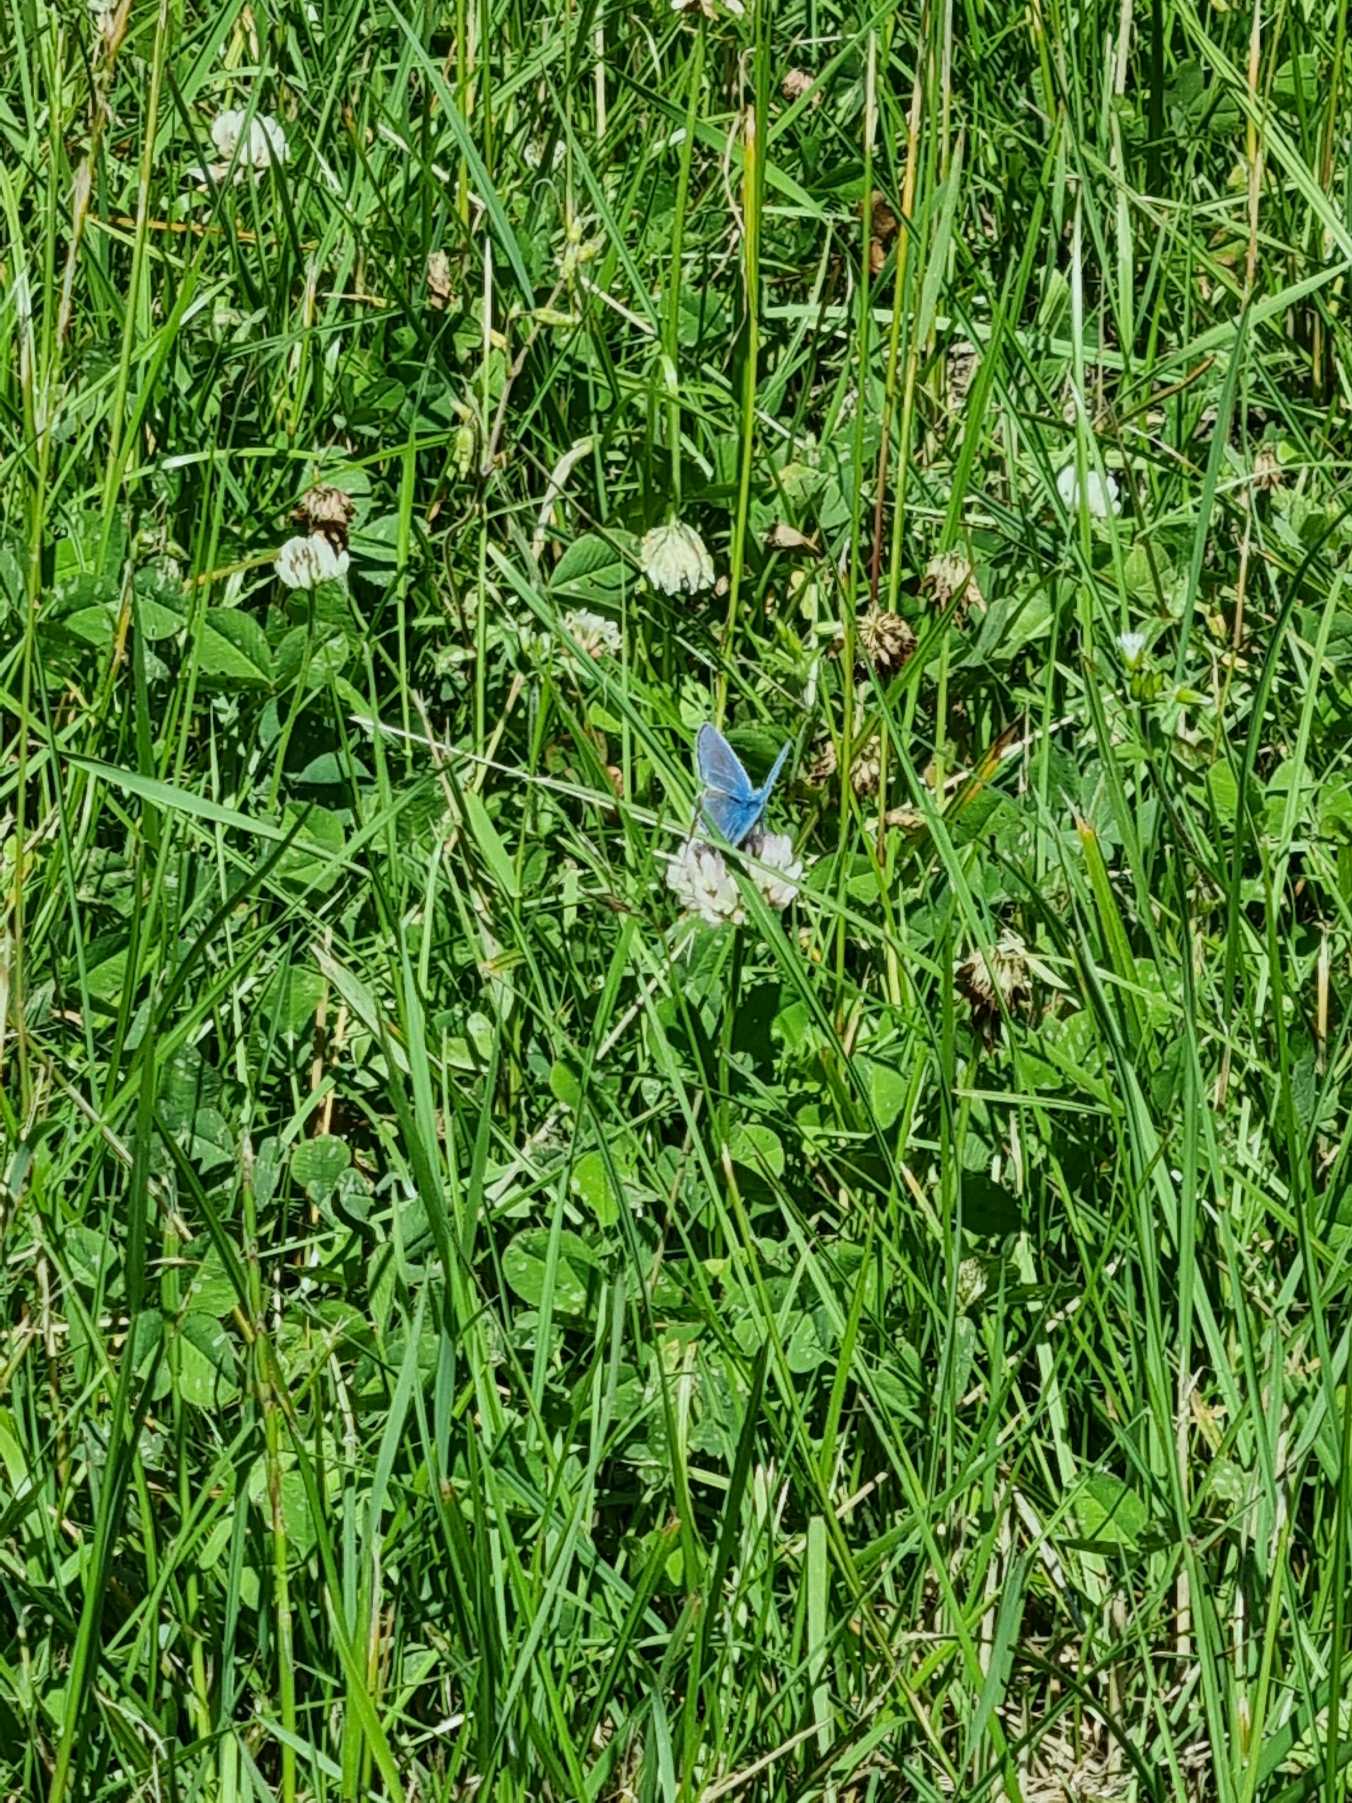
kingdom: Animalia
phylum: Arthropoda
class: Insecta
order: Lepidoptera
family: Lycaenidae
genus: Polyommatus
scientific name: Polyommatus icarus
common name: Almindelig blåfugl
